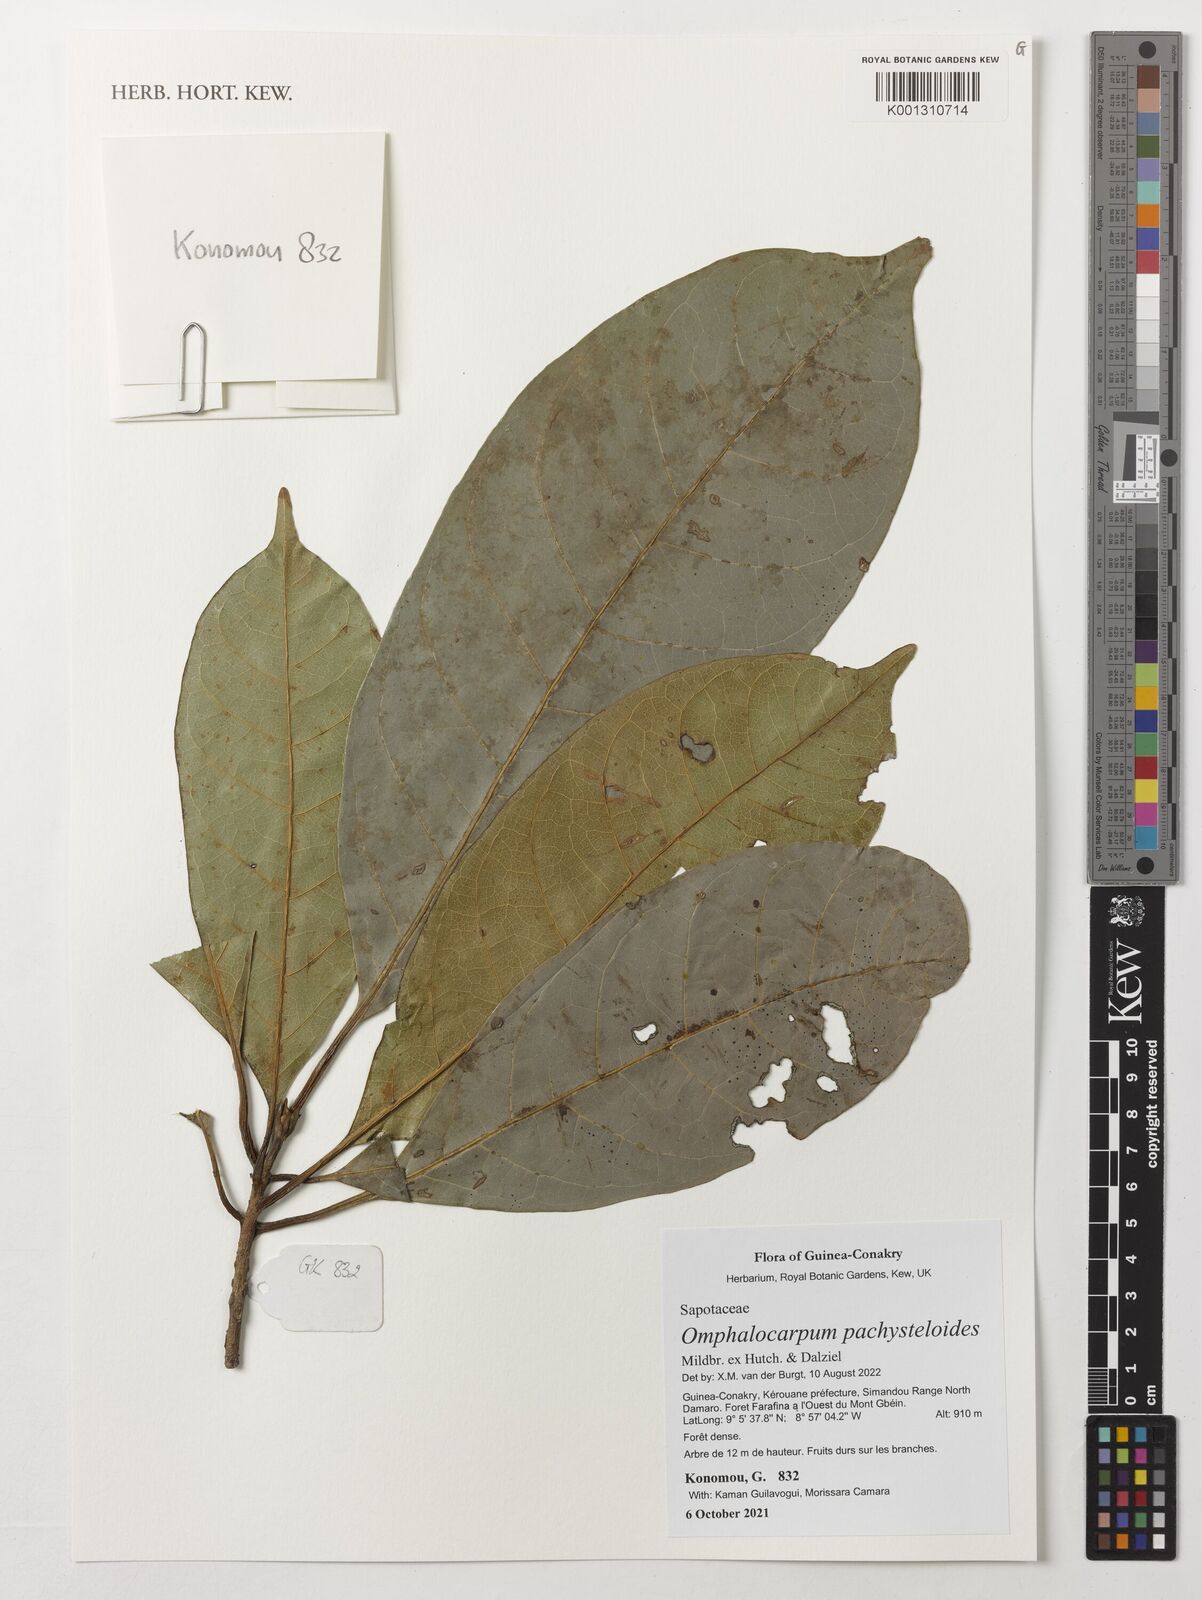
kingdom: Plantae
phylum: Tracheophyta
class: Magnoliopsida
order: Ericales
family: Sapotaceae
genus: Omphalocarpum
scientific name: Omphalocarpum pachysteloides
